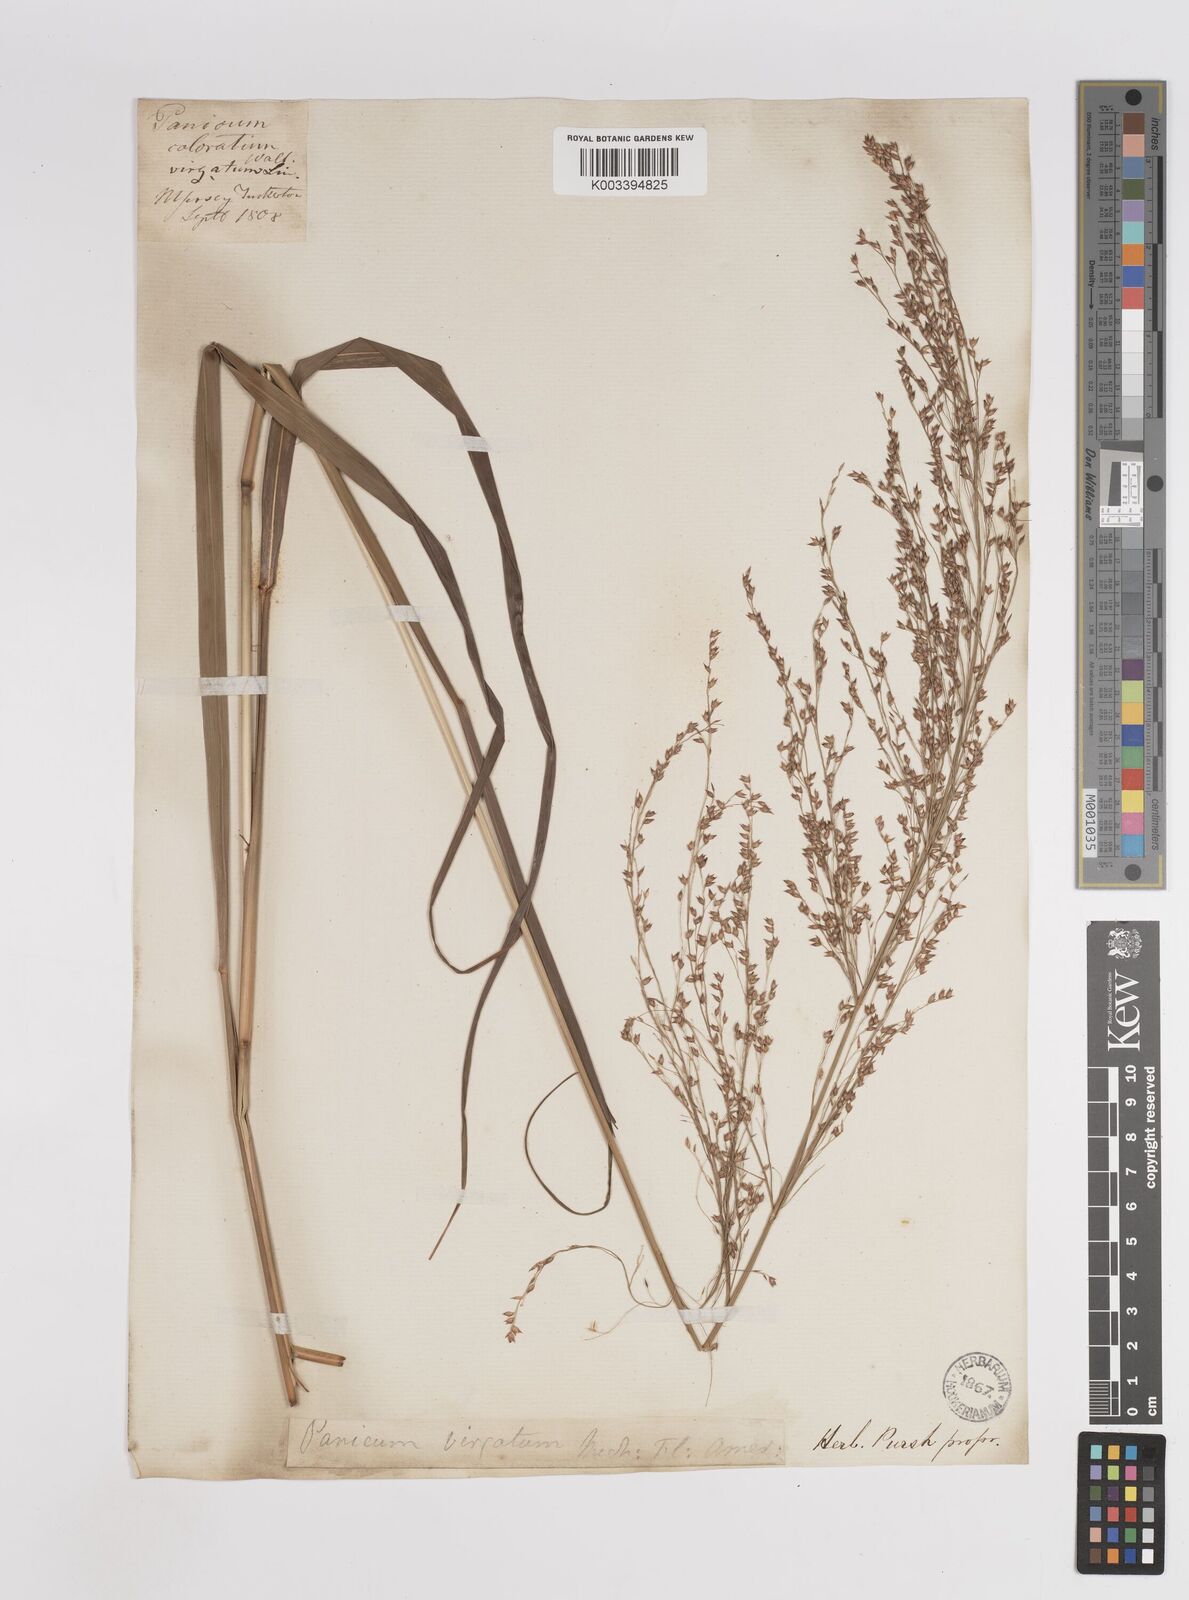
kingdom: Plantae
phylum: Tracheophyta
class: Liliopsida
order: Poales
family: Poaceae
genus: Panicum
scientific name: Panicum virgatum
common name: Switchgrass
